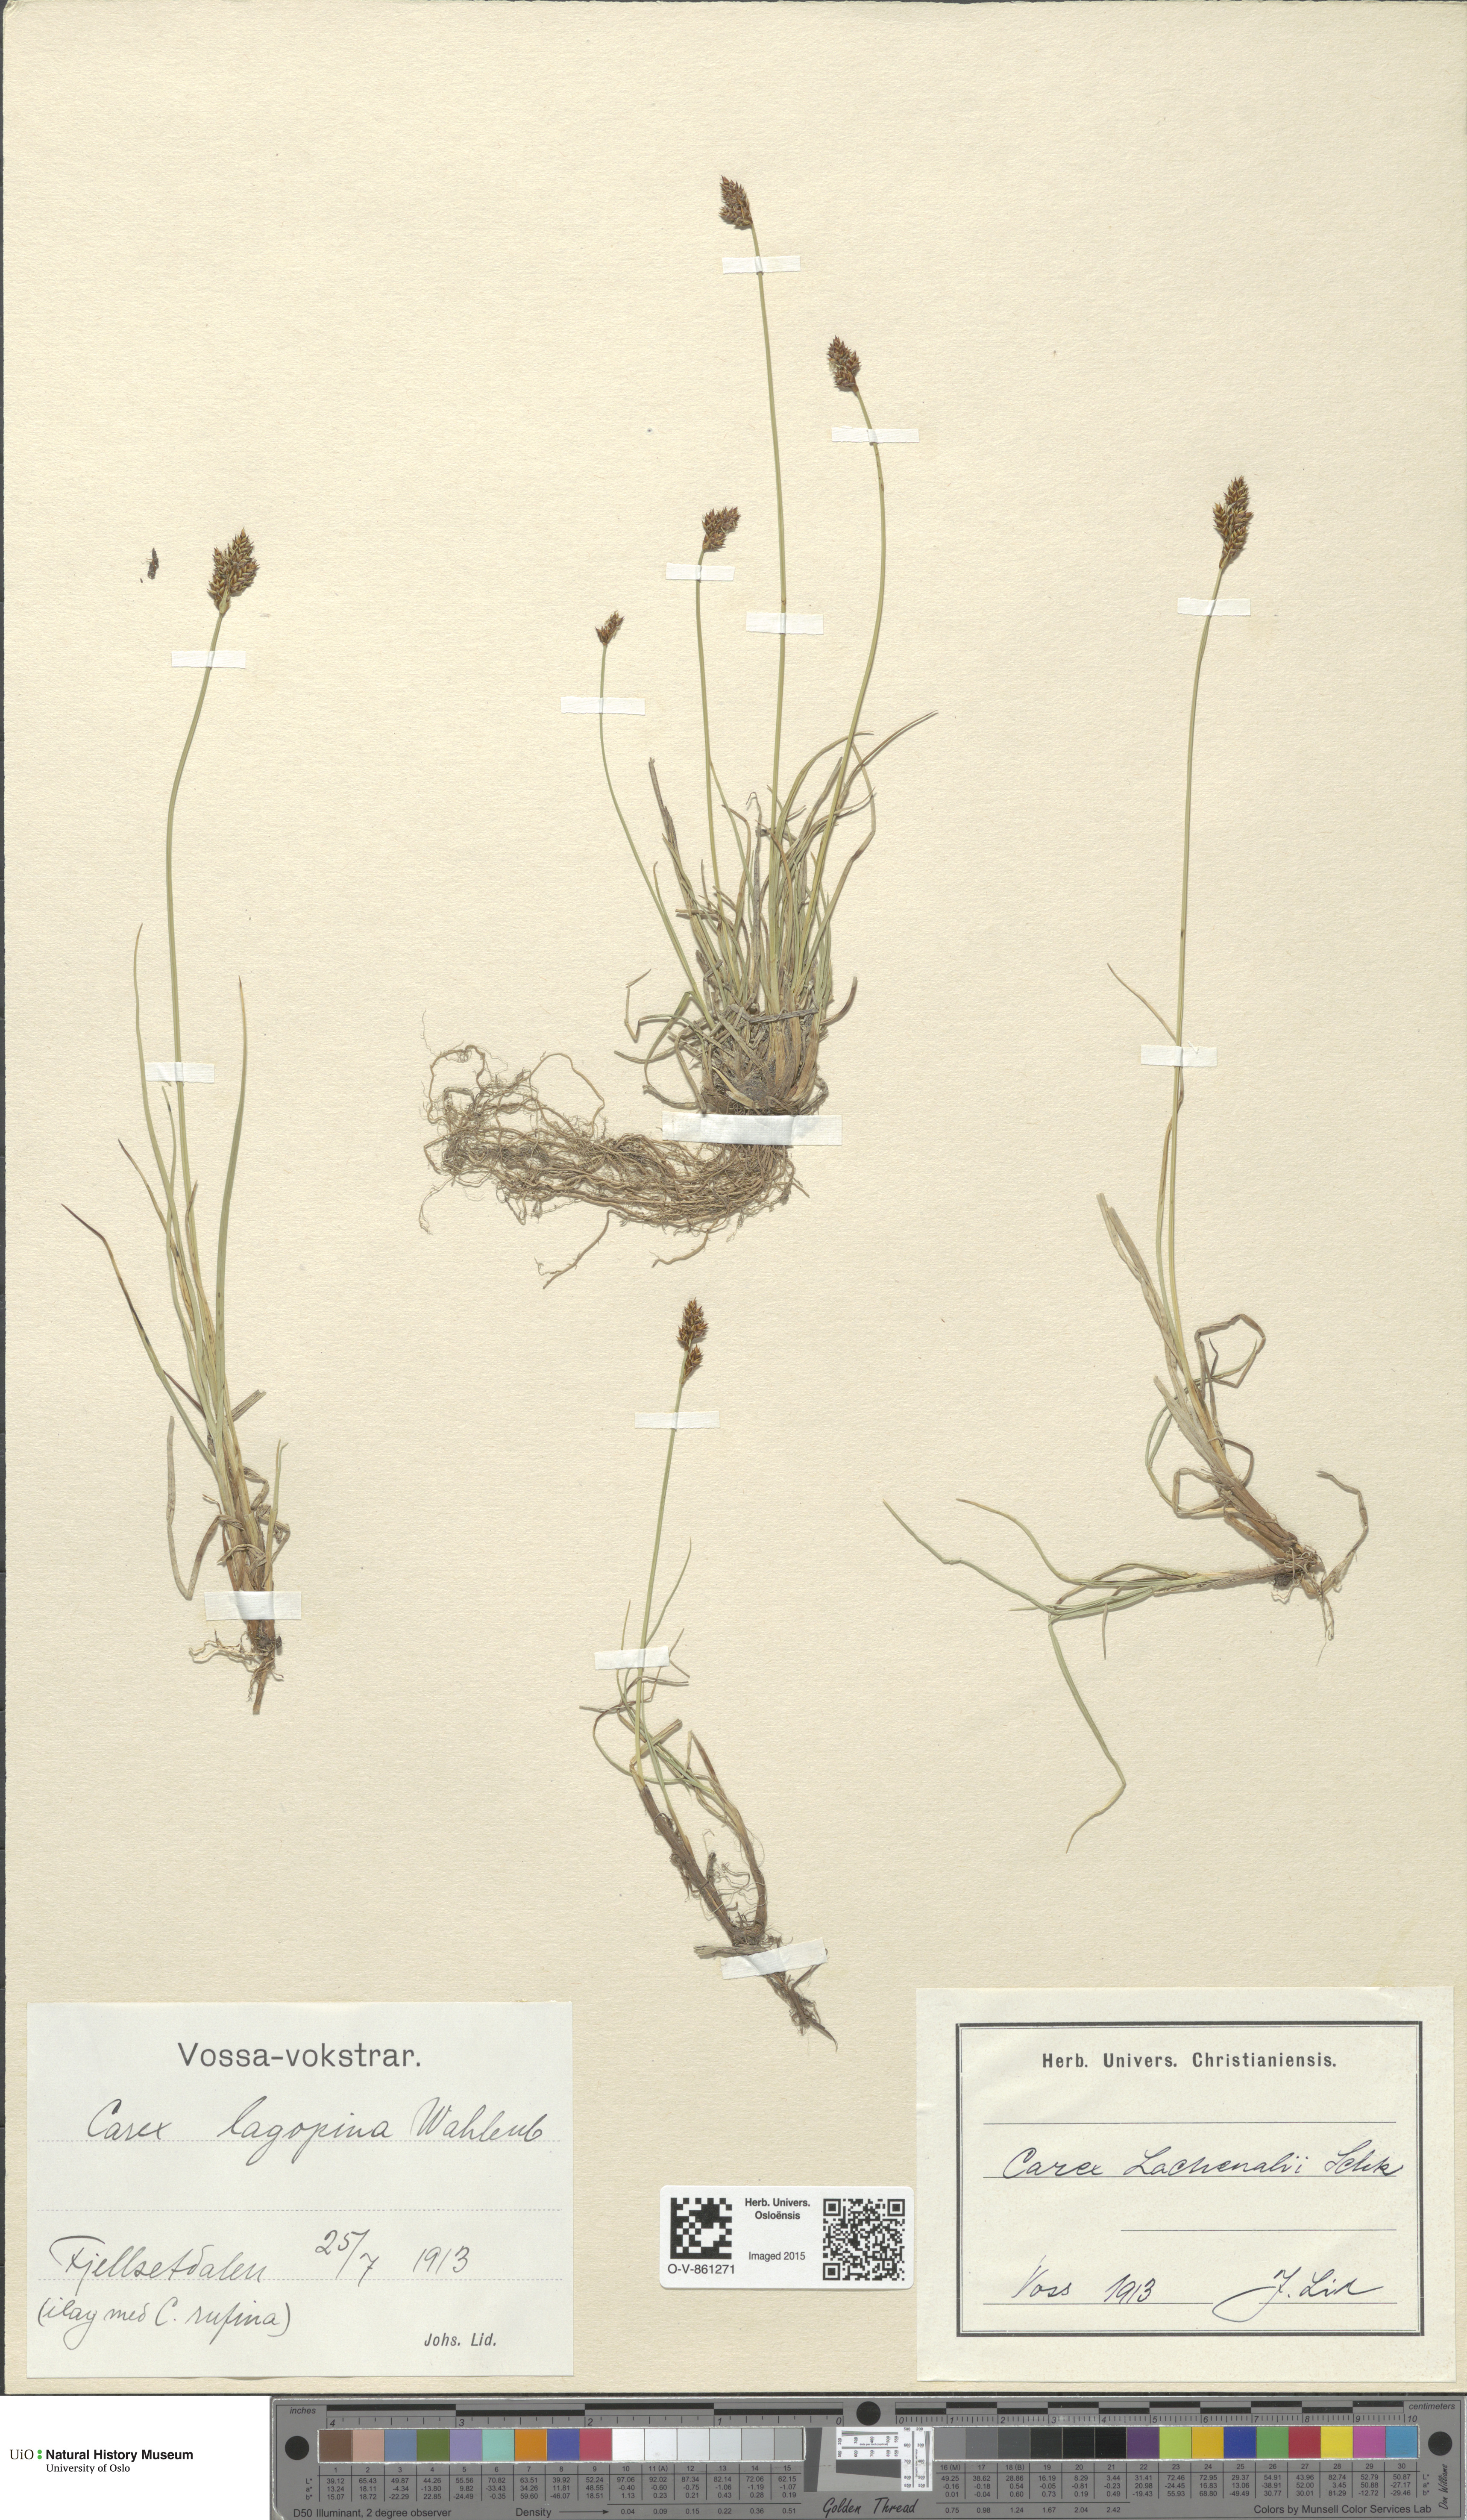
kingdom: Plantae
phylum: Tracheophyta
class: Liliopsida
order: Poales
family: Cyperaceae
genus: Carex
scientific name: Carex lachenalii
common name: Hare's-foot sedge
